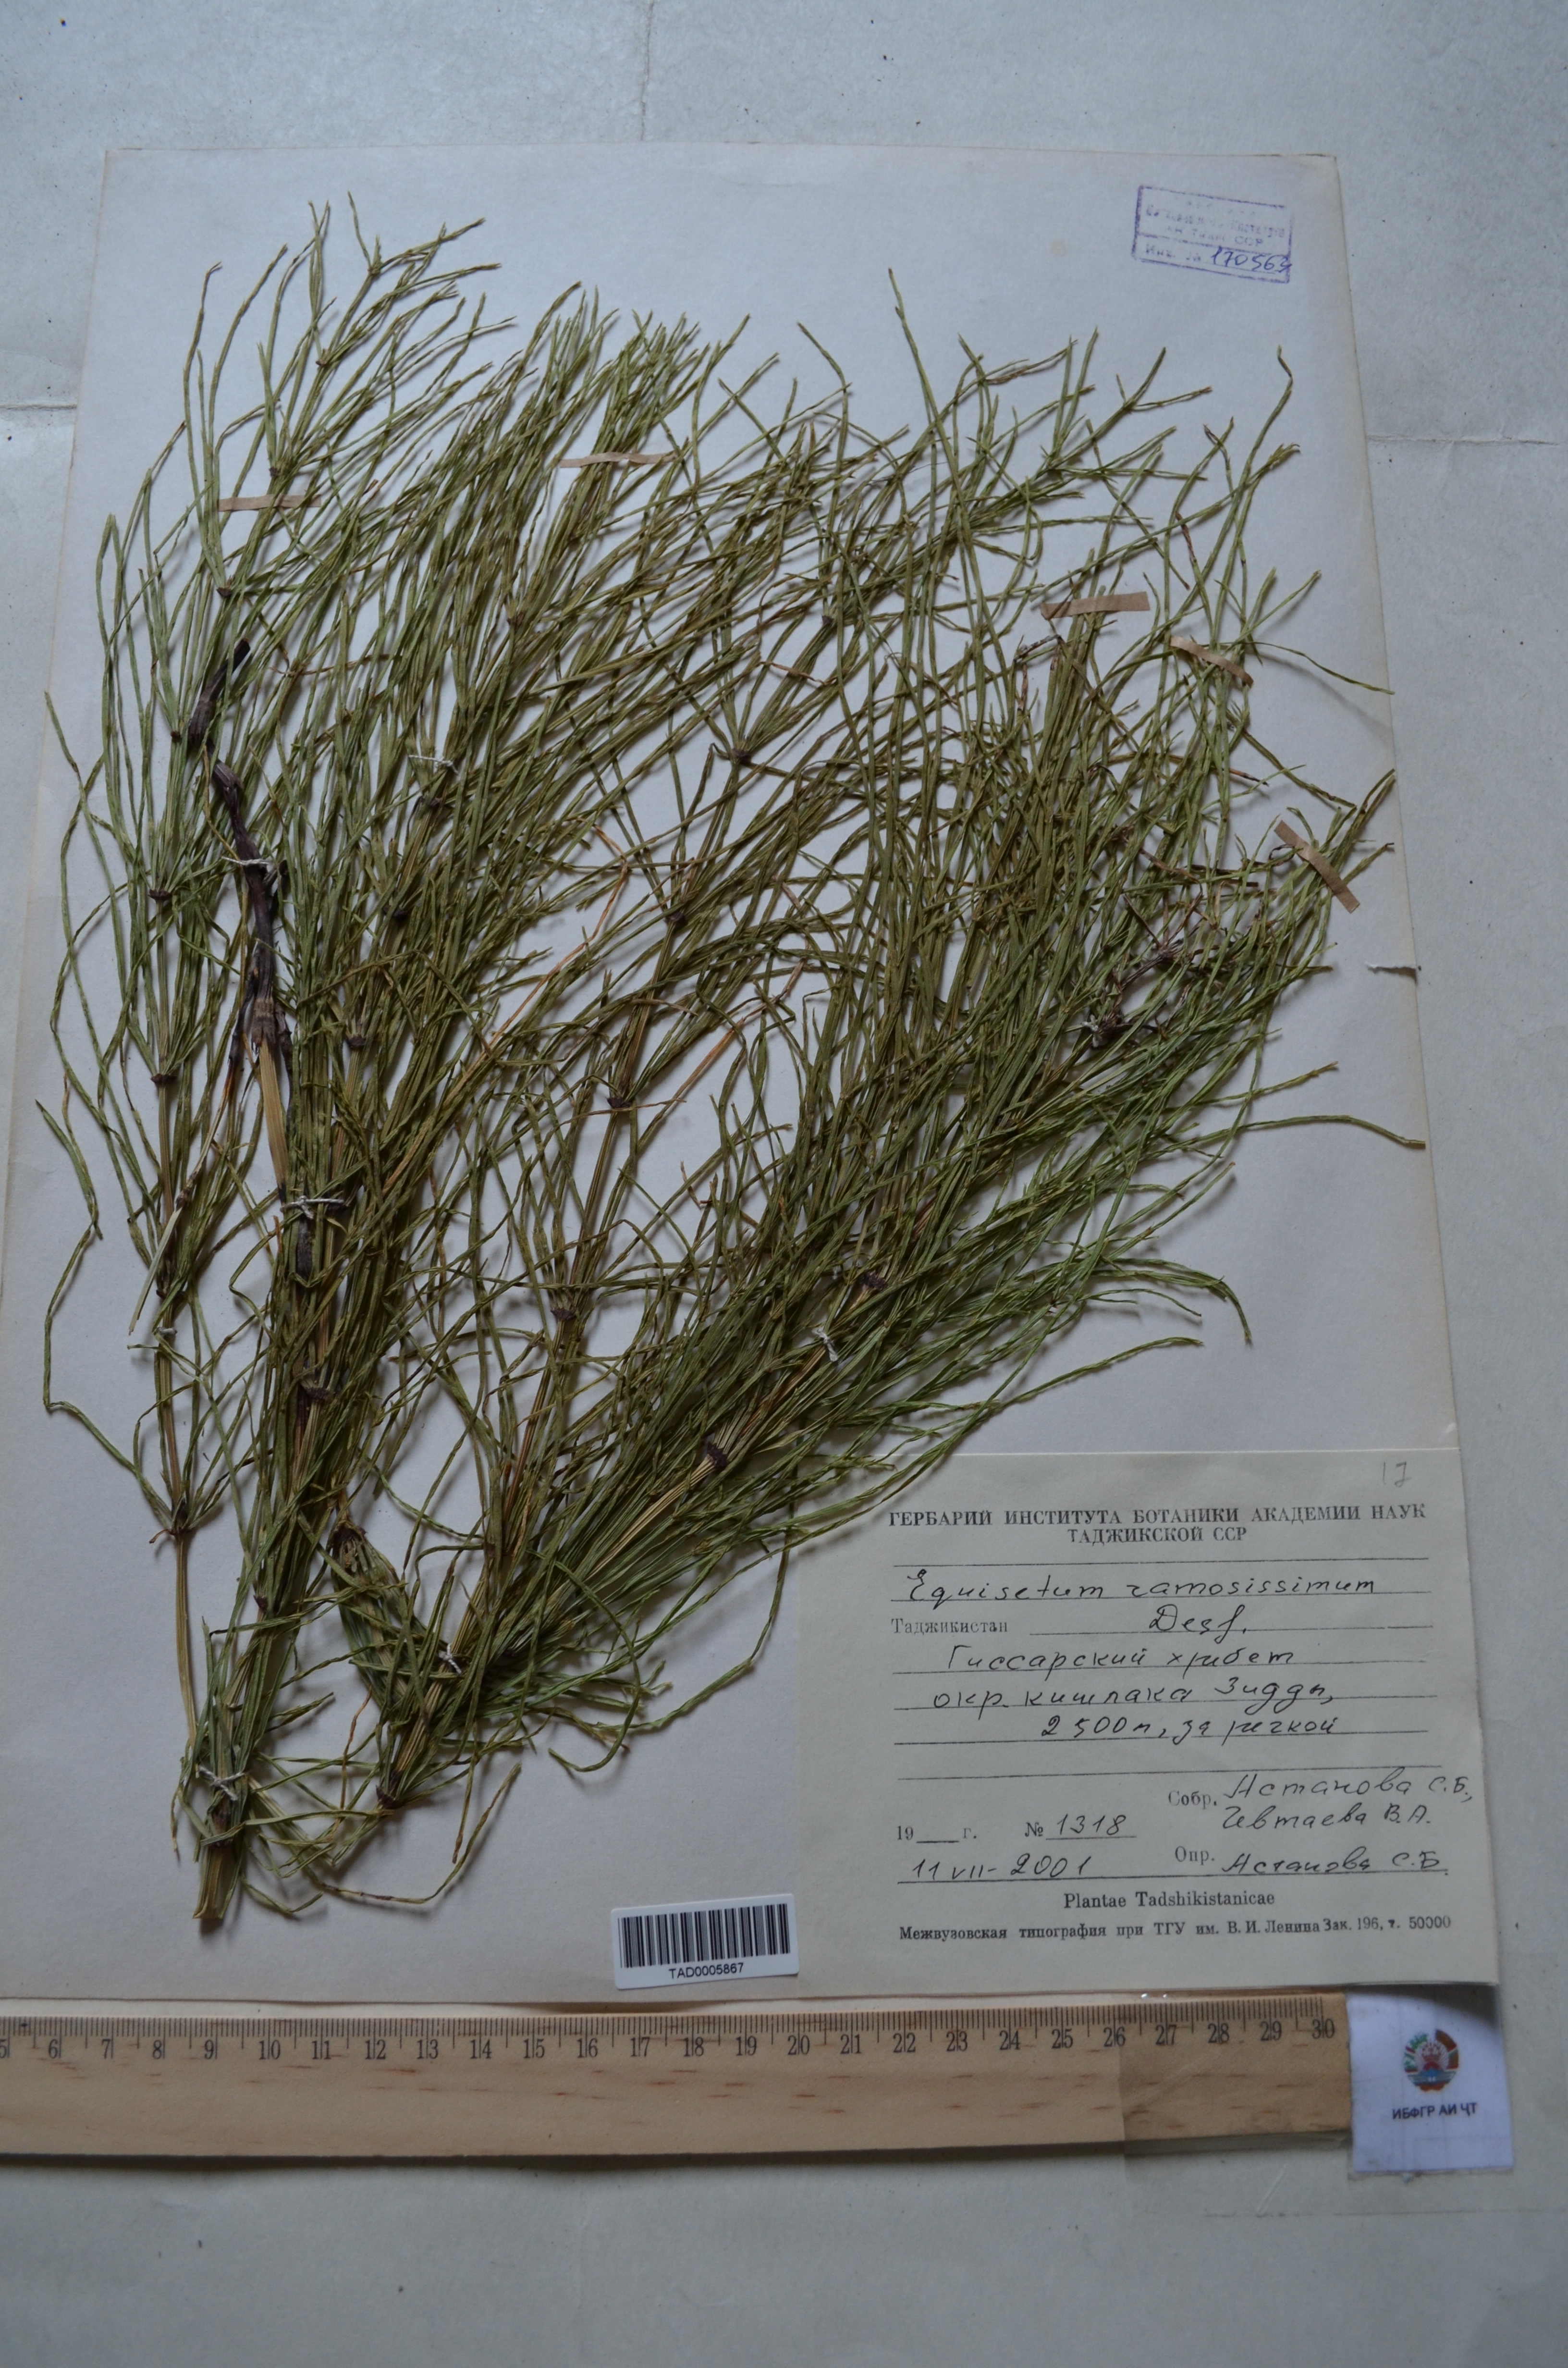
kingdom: Plantae
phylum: Tracheophyta
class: Polypodiopsida
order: Equisetales
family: Equisetaceae
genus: Equisetum
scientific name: Equisetum ramosissimum
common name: Branched horsetail
